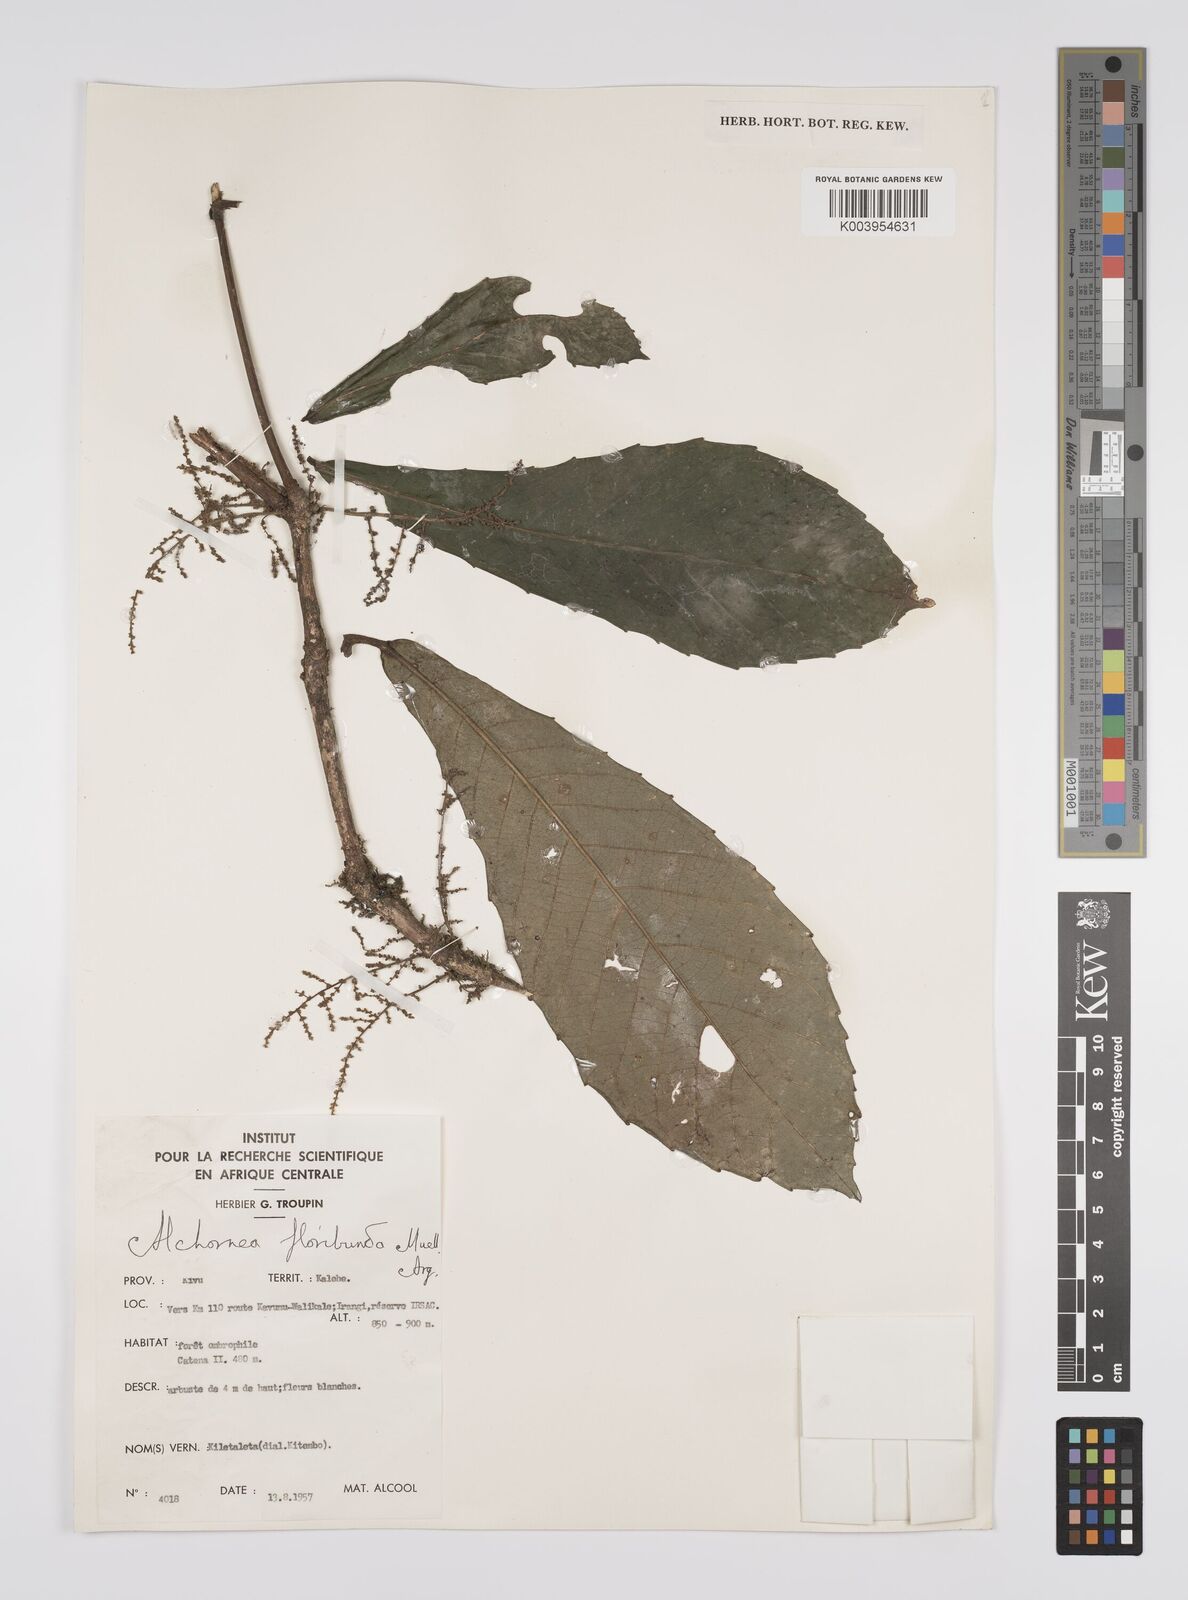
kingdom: Plantae
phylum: Tracheophyta
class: Magnoliopsida
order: Malpighiales
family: Euphorbiaceae
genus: Alchornea
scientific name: Alchornea floribunda
